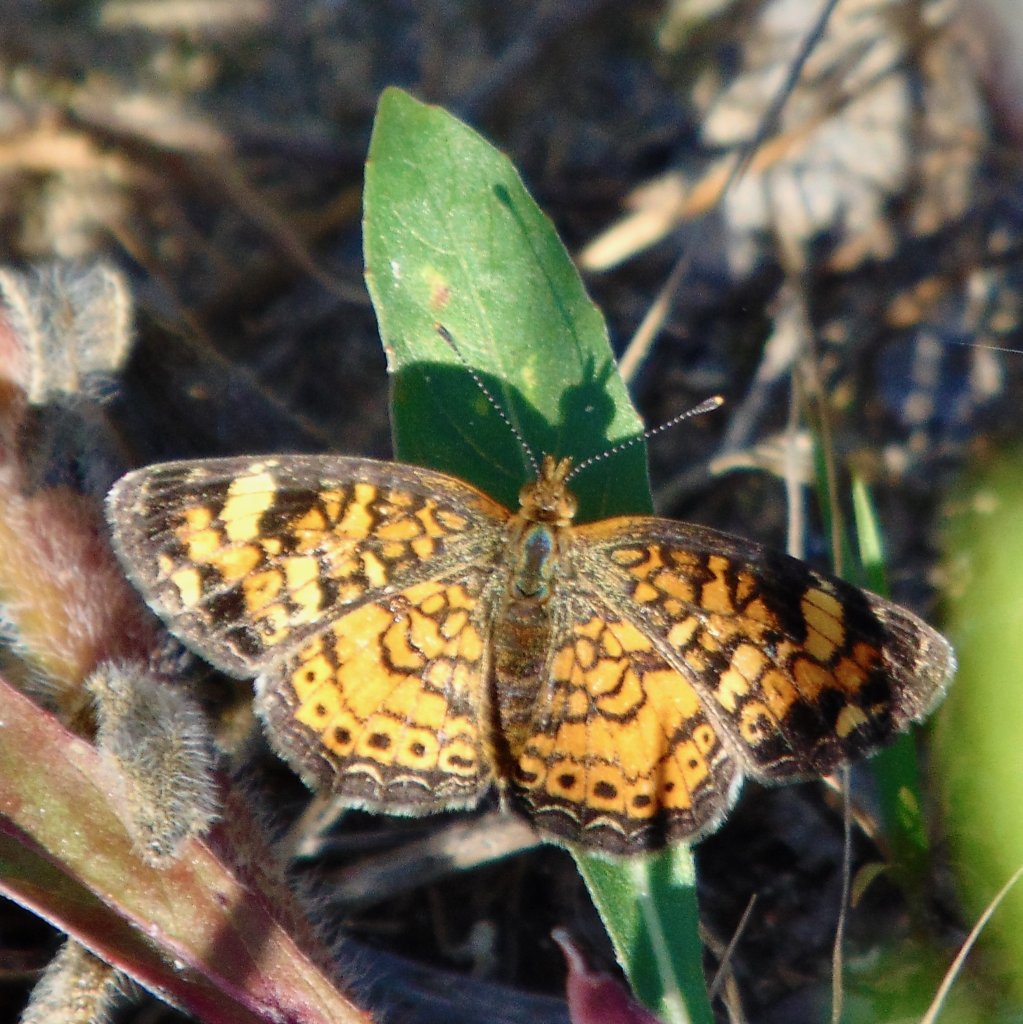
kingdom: Animalia
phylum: Arthropoda
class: Insecta
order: Lepidoptera
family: Nymphalidae
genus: Phyciodes
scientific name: Phyciodes tharos
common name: Pearl Crescent
